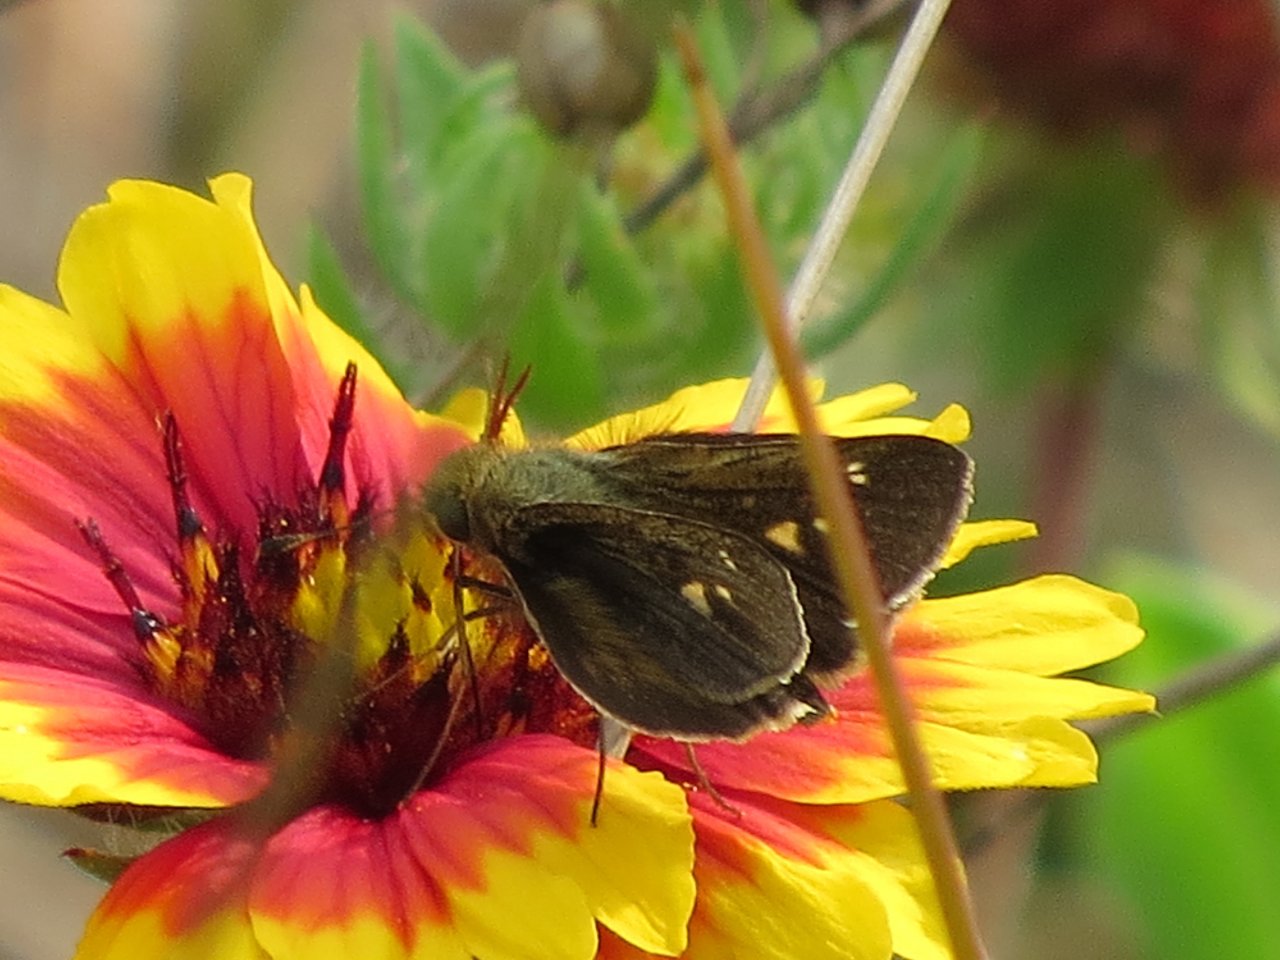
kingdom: Animalia
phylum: Arthropoda
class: Insecta
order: Lepidoptera
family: Hesperiidae
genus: Polites
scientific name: Polites vibex
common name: Whirlabout
